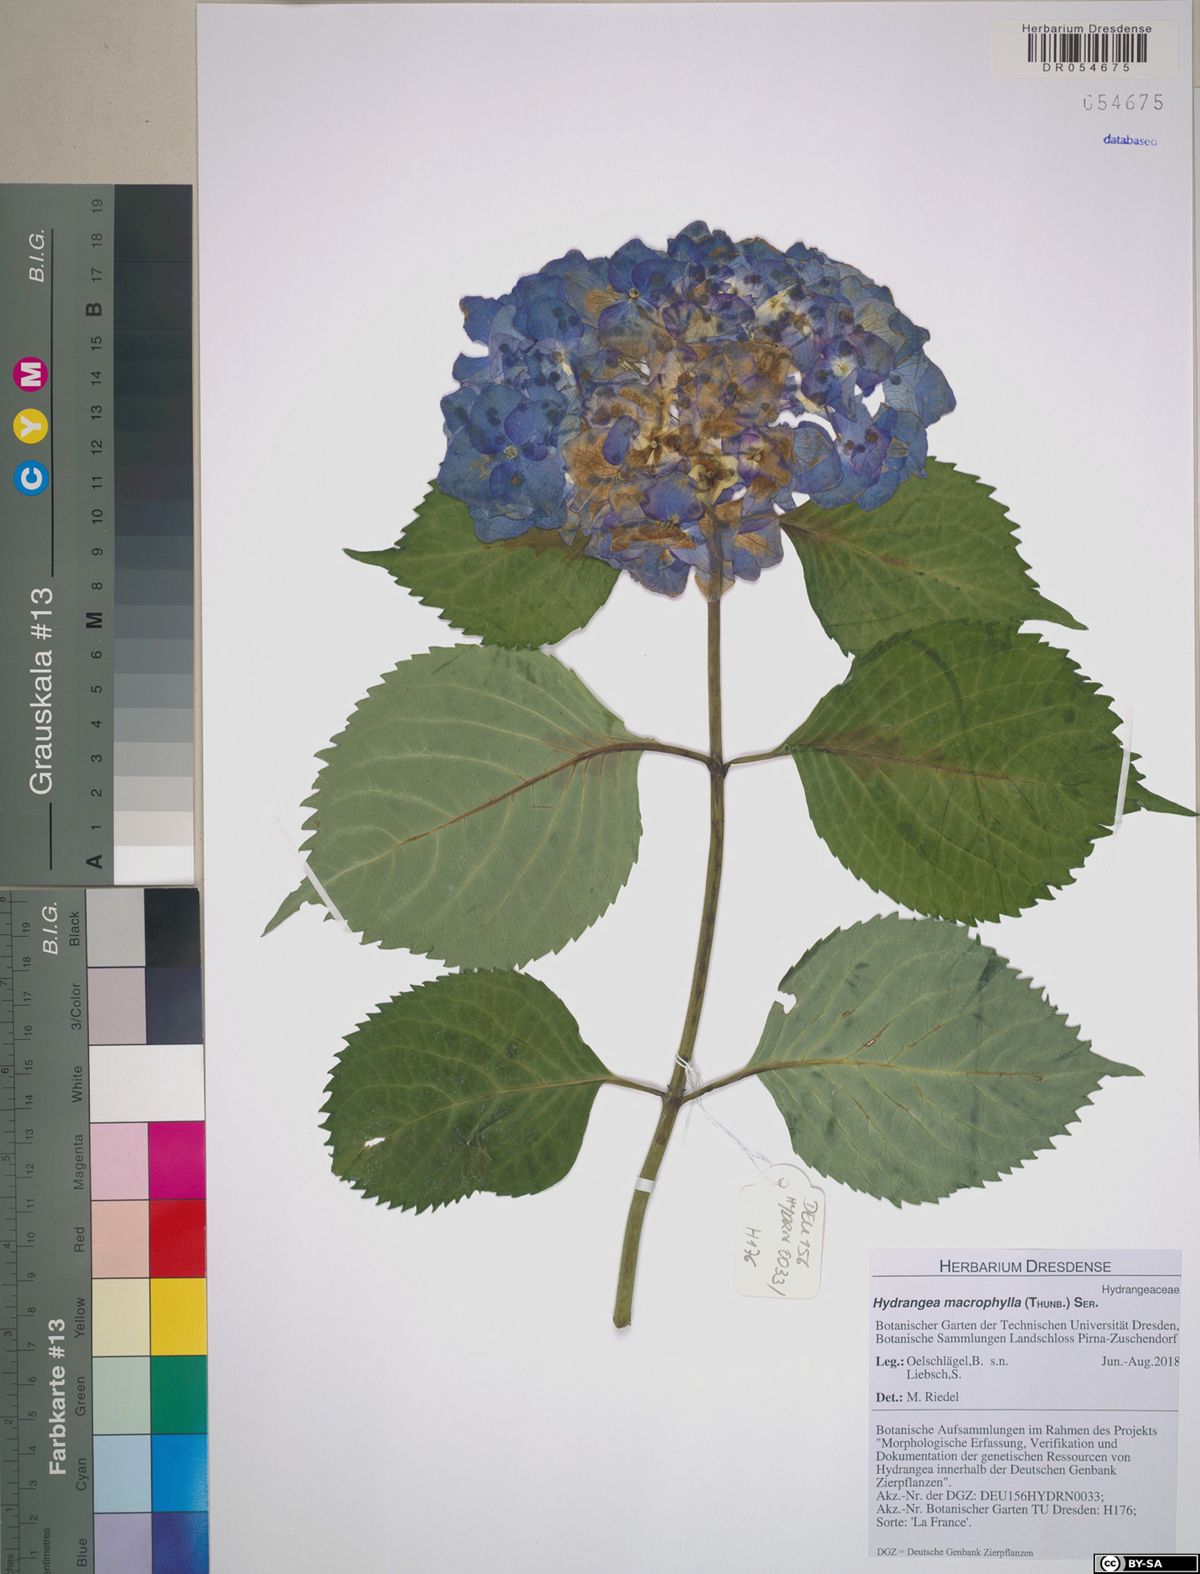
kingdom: Plantae
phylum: Tracheophyta
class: Magnoliopsida
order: Cornales
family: Hydrangeaceae
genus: Hydrangea
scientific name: Hydrangea macrophylla
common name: Hydrangea
